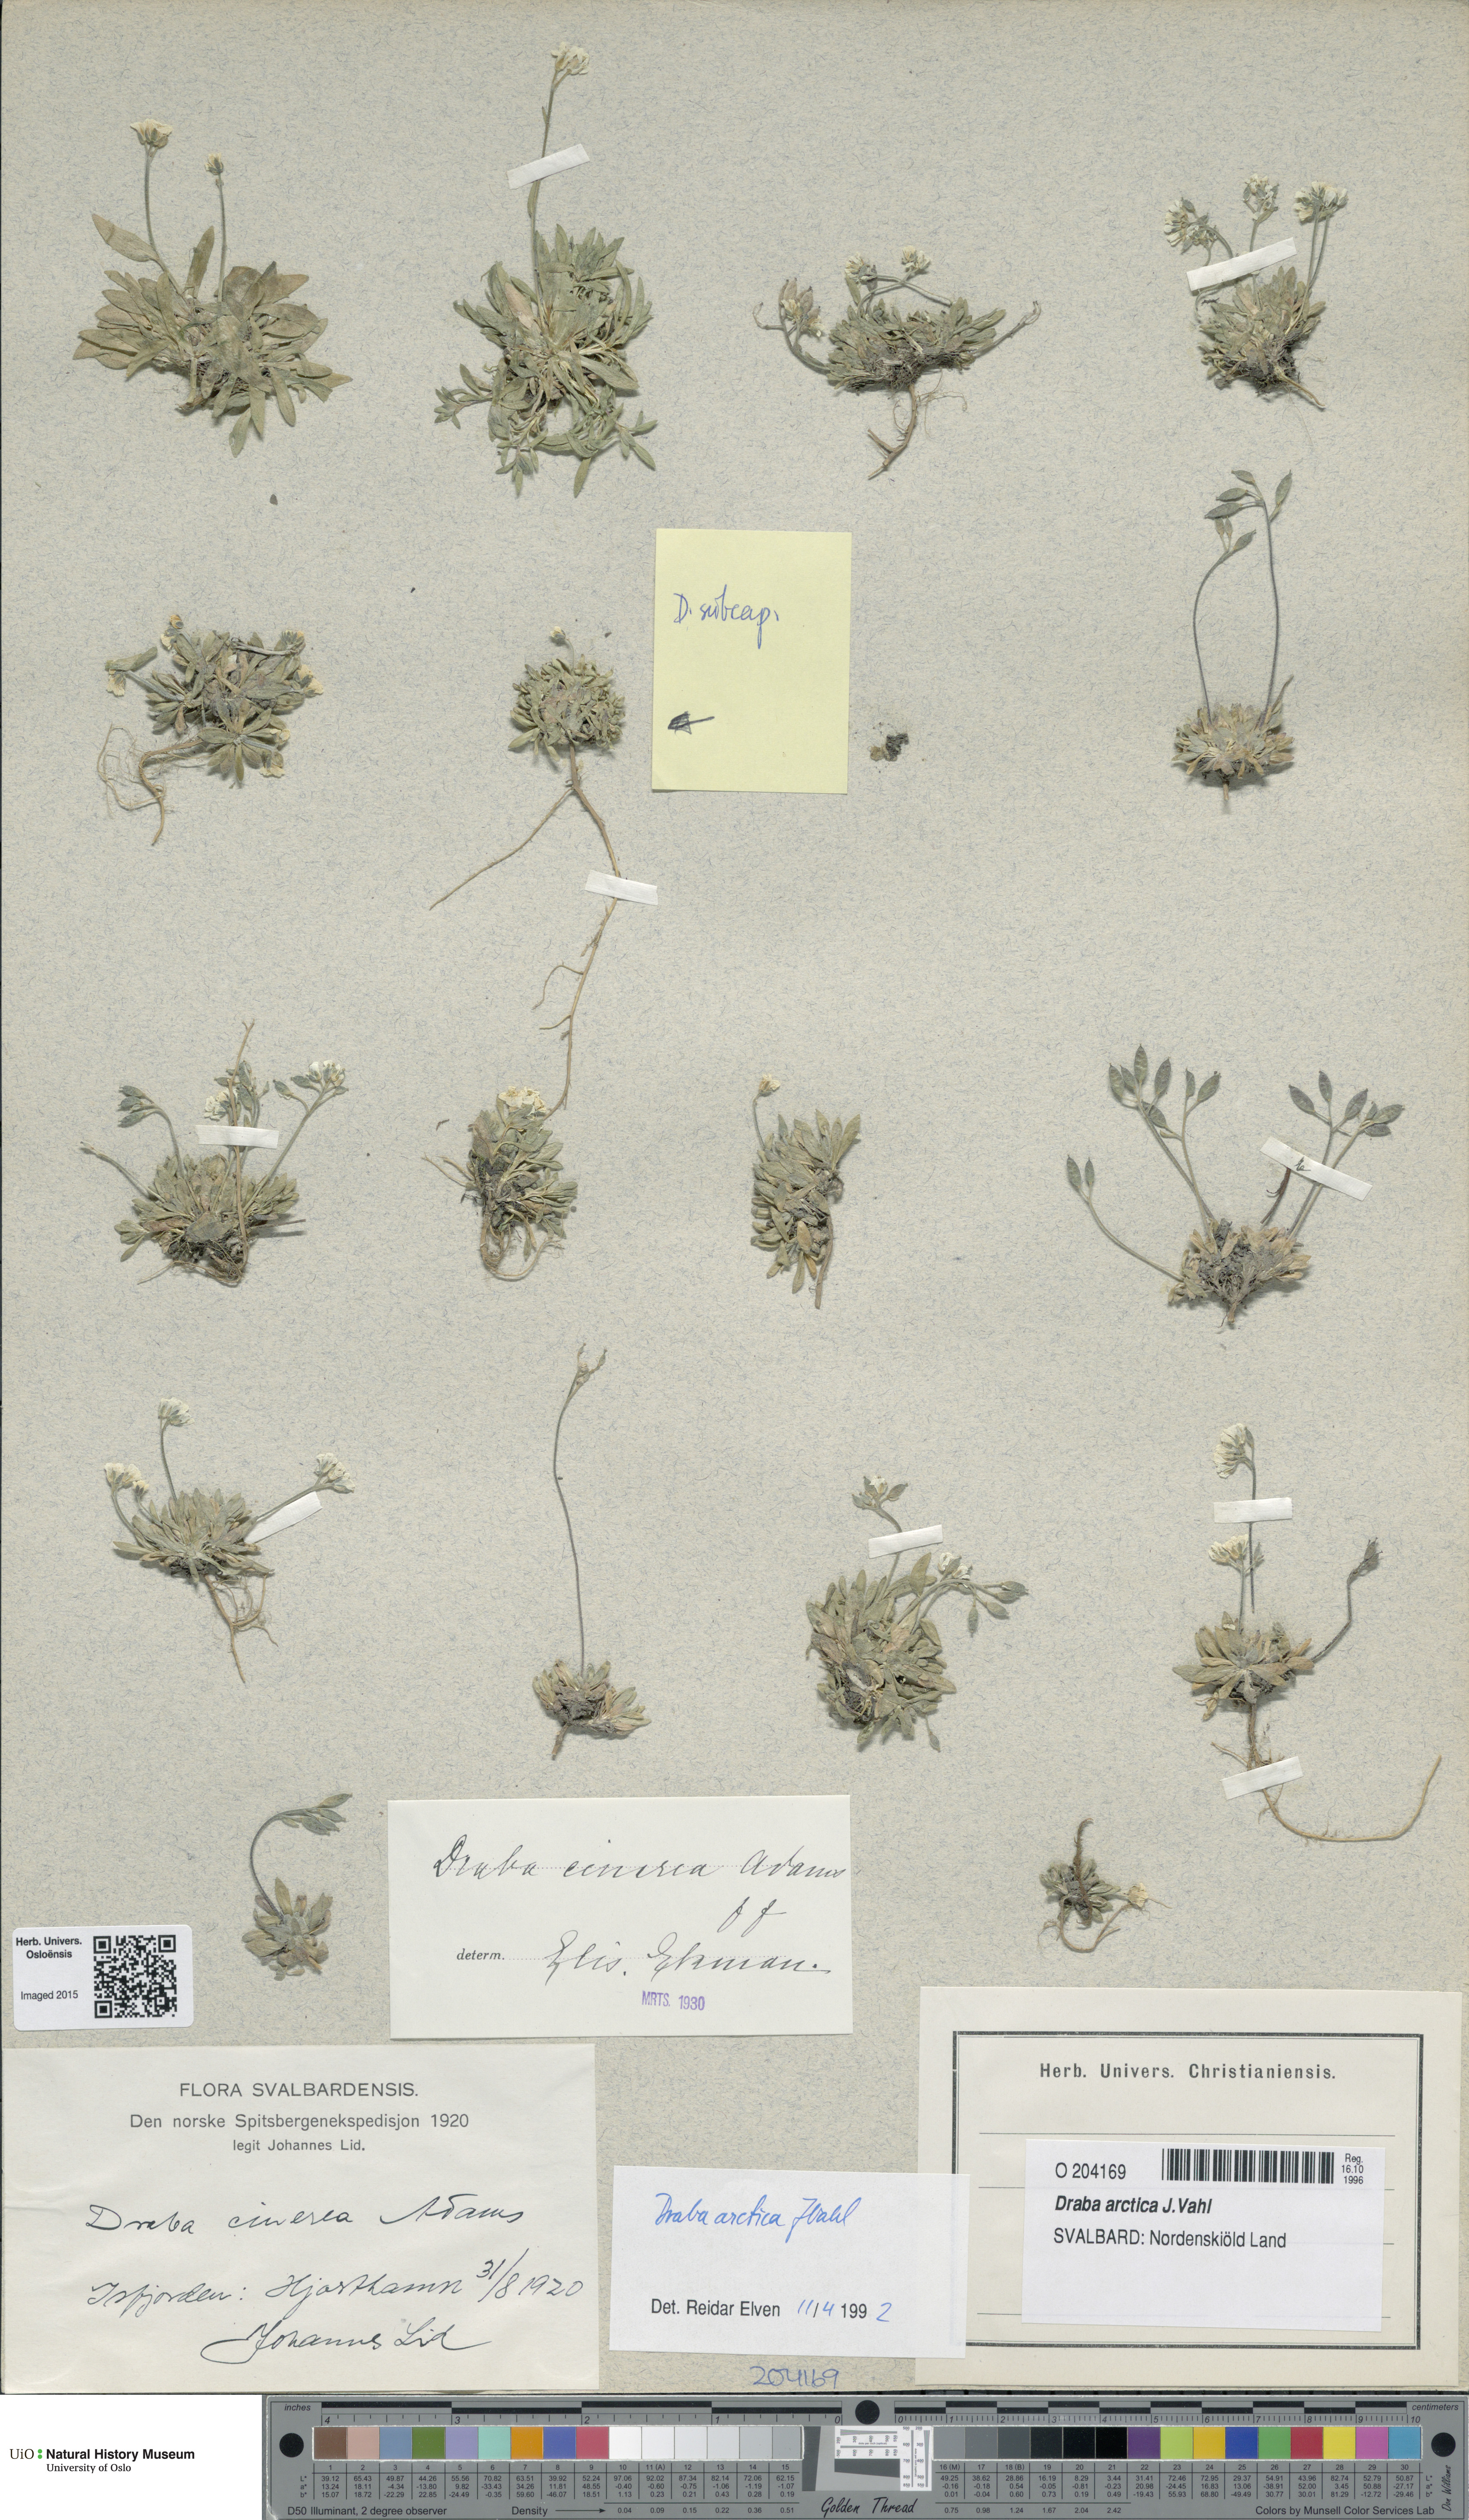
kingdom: Plantae
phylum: Tracheophyta
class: Magnoliopsida
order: Brassicales
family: Brassicaceae
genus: Draba
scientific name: Draba arctica
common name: Arctic draba
